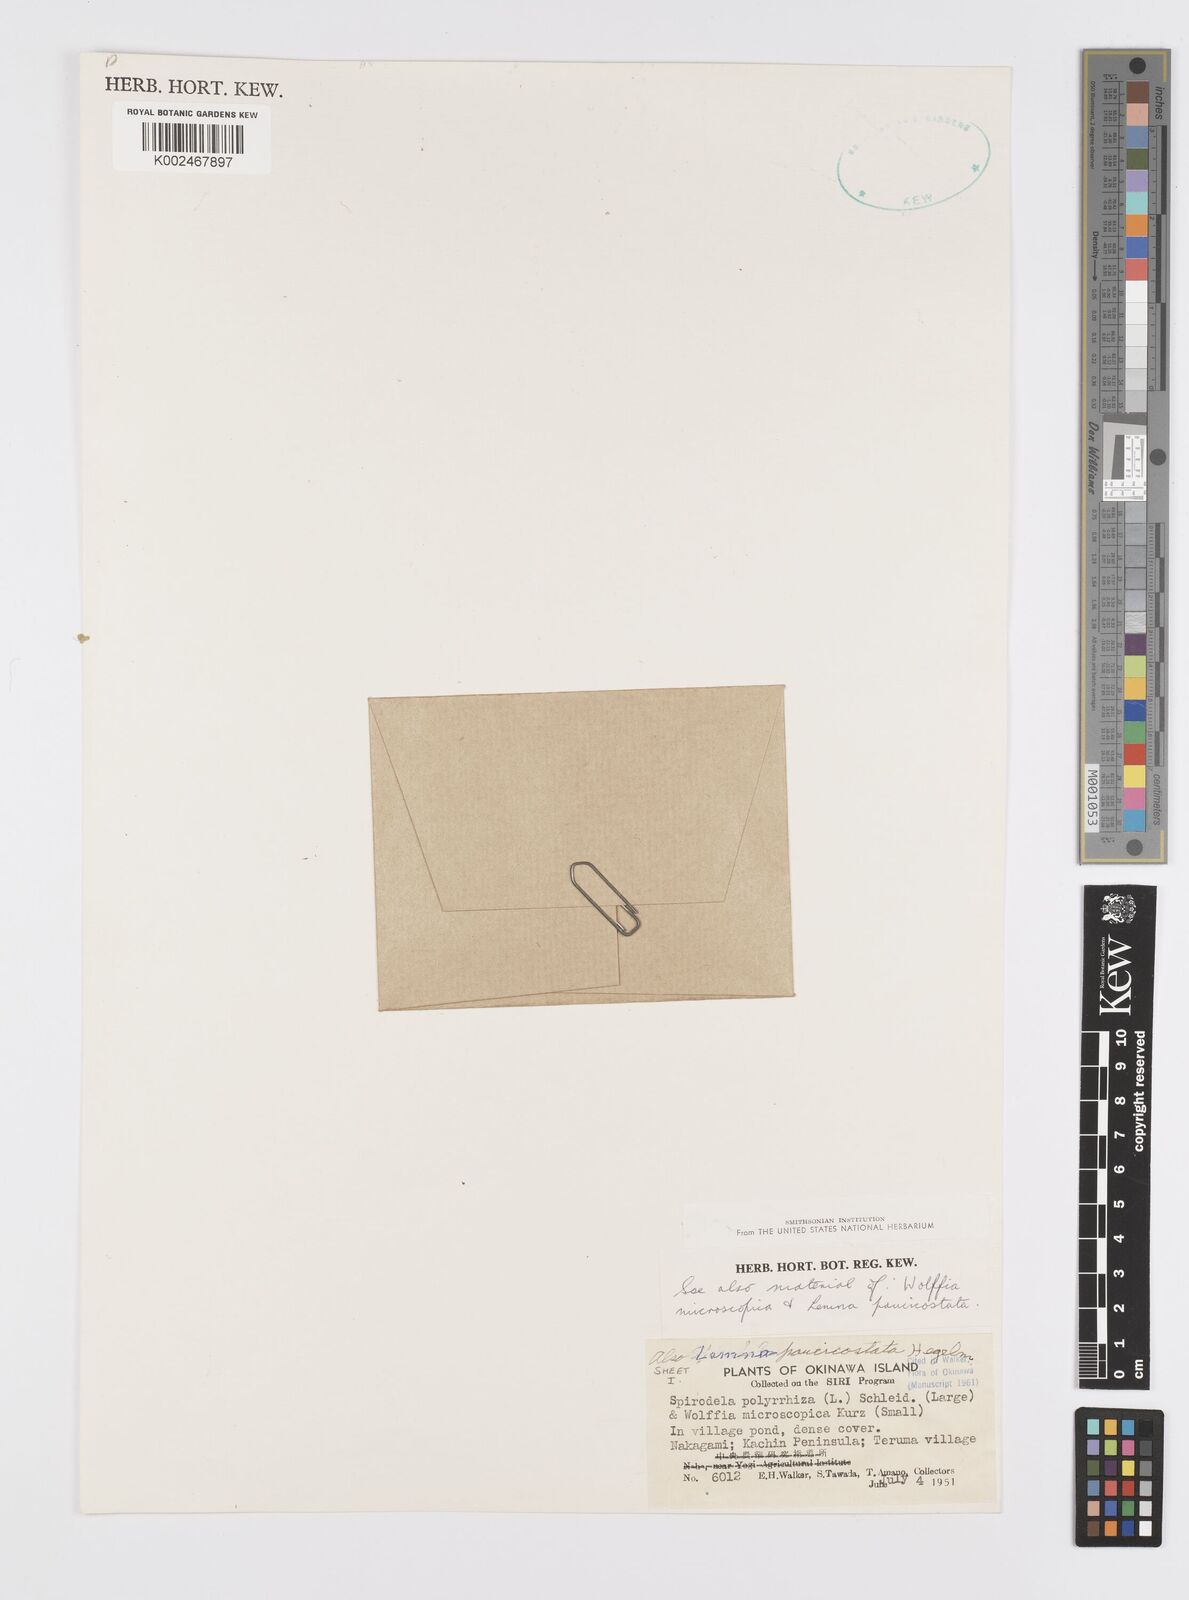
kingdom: Plantae
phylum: Tracheophyta
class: Liliopsida
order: Alismatales
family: Araceae
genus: Lemna
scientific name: Lemna aequinoctialis
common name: Duckweed
